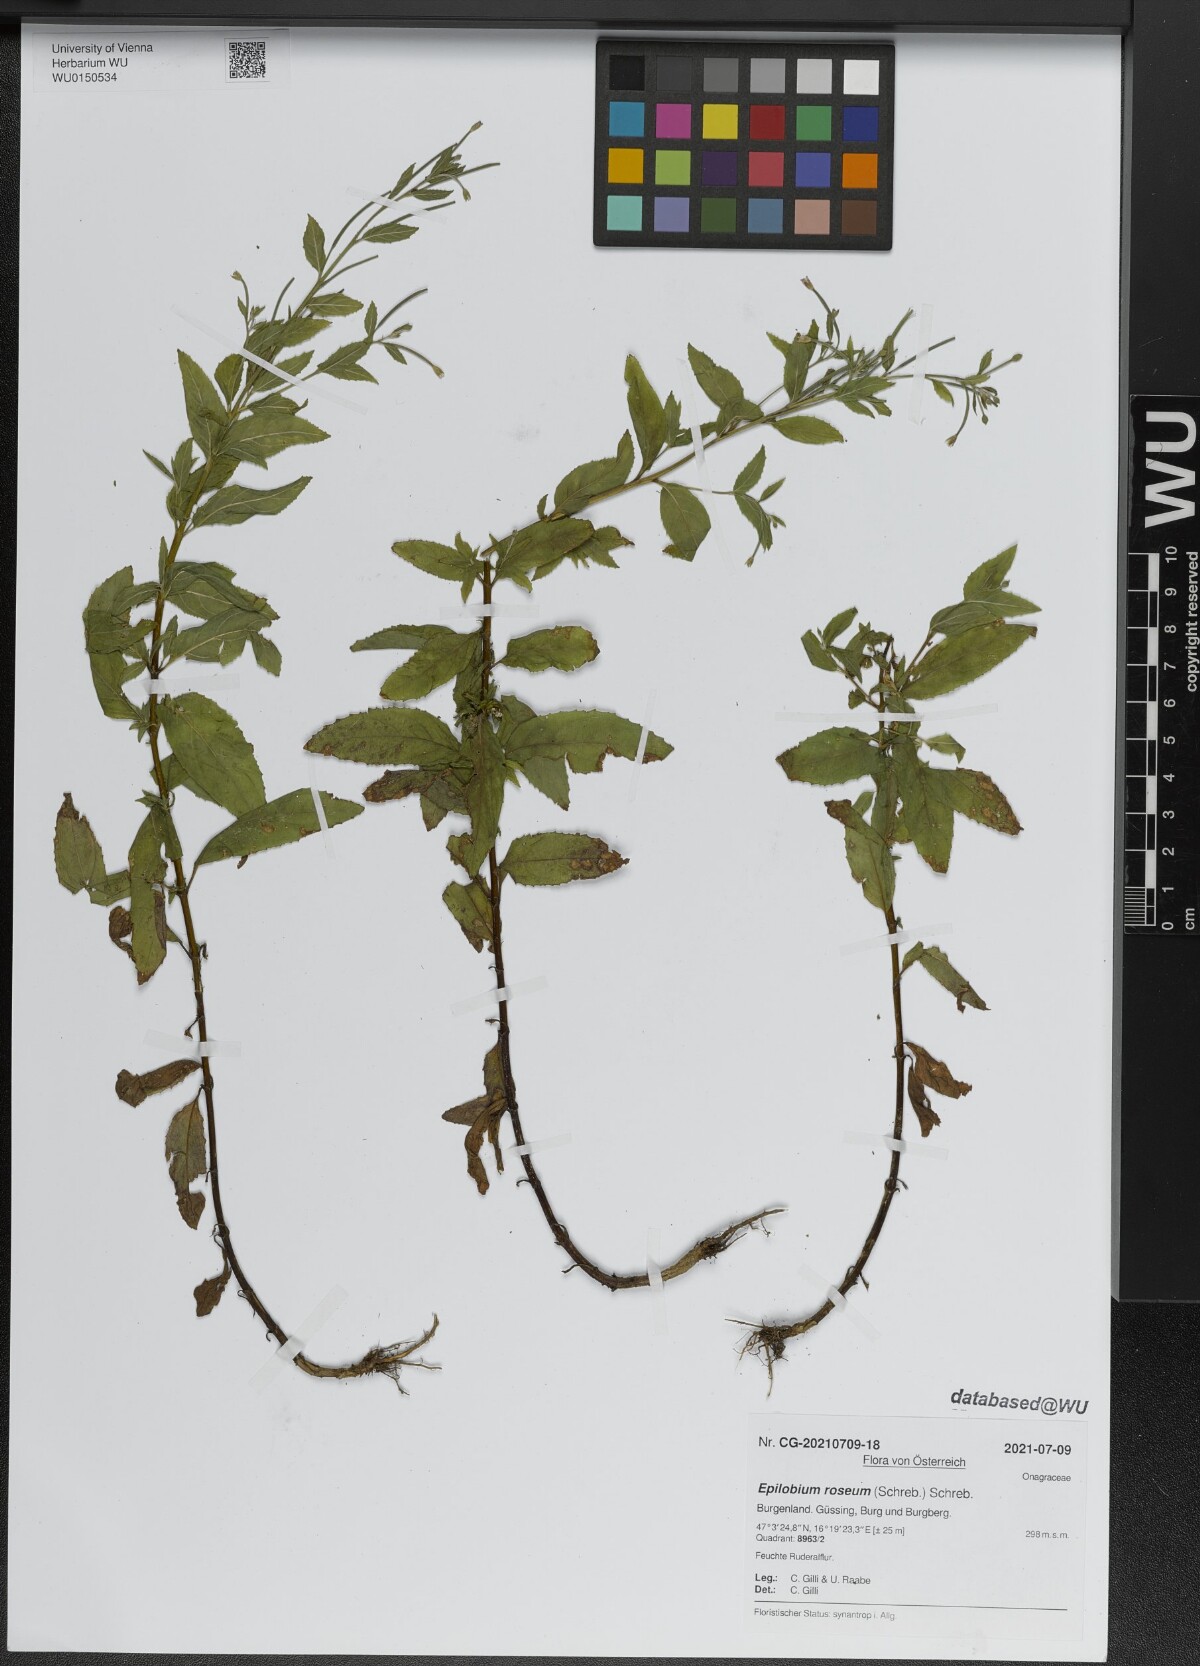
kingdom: Plantae
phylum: Tracheophyta
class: Magnoliopsida
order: Myrtales
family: Onagraceae
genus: Epilobium
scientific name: Epilobium roseum
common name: Pale willowherb
